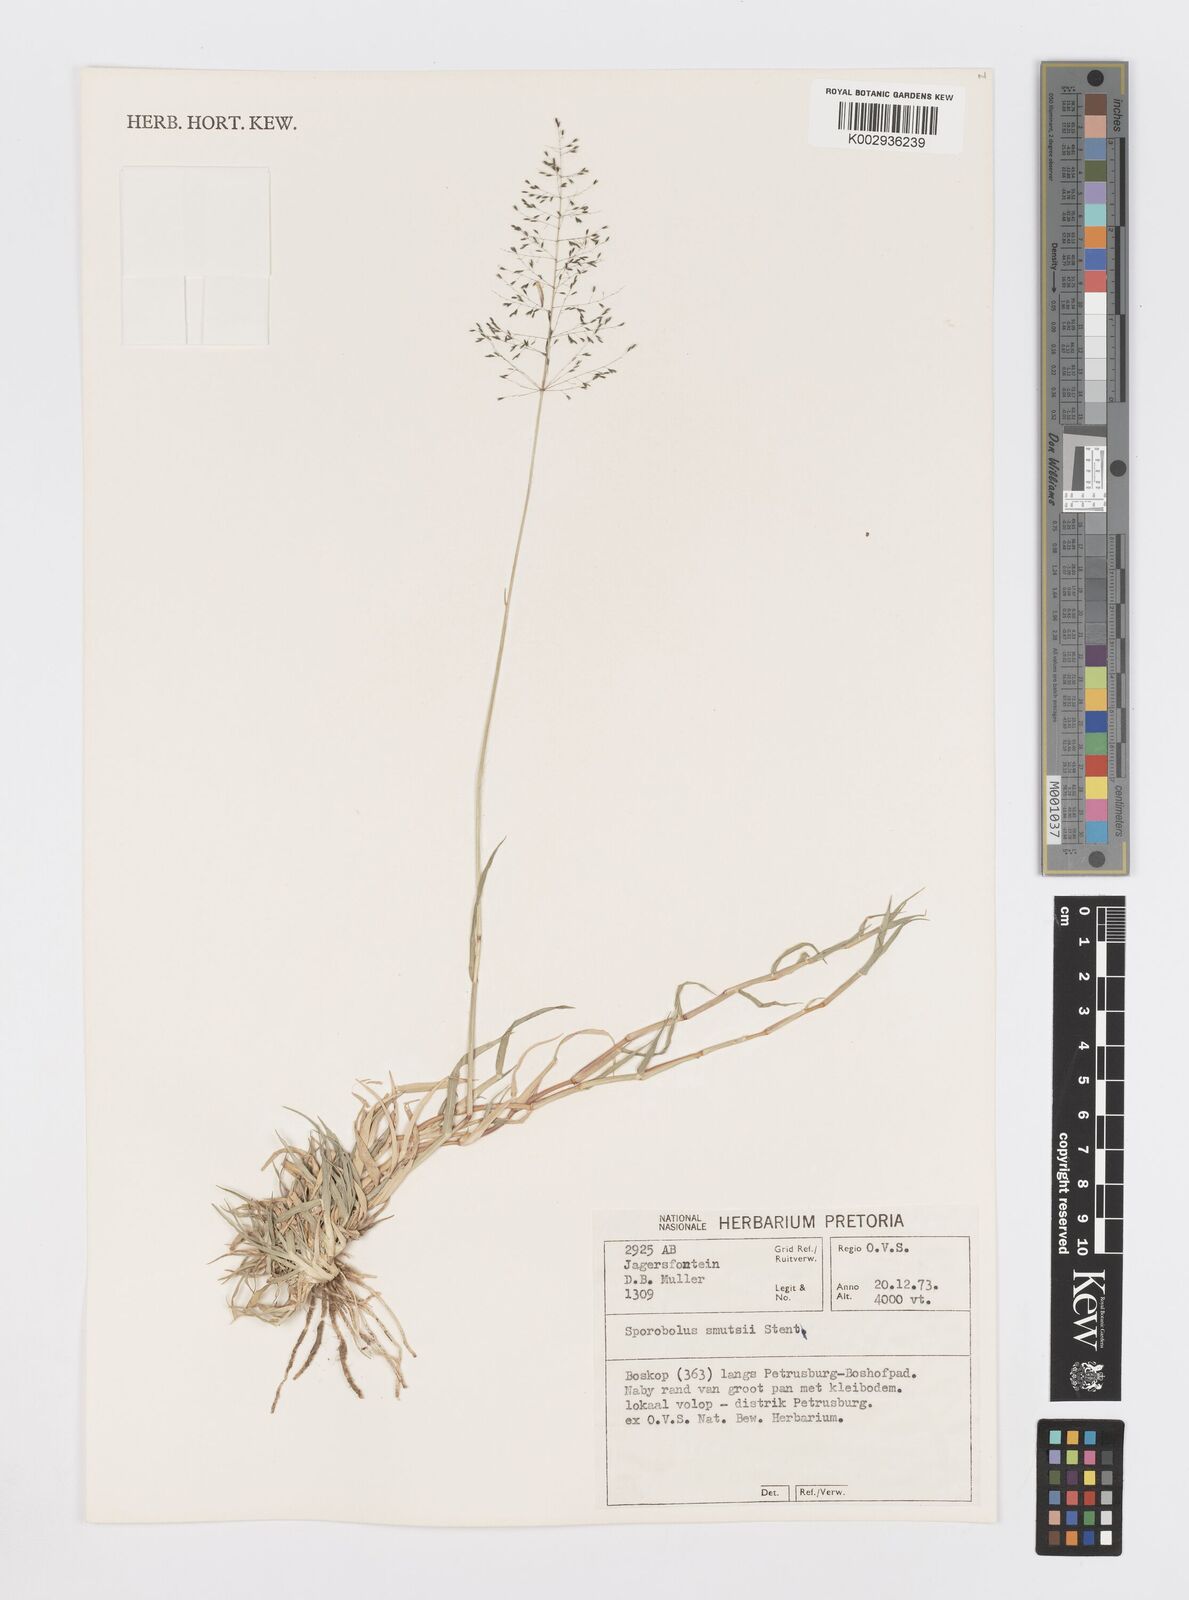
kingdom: Plantae
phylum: Tracheophyta
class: Liliopsida
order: Poales
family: Poaceae
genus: Sporobolus
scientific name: Sporobolus ioclados
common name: Pan dropseed
